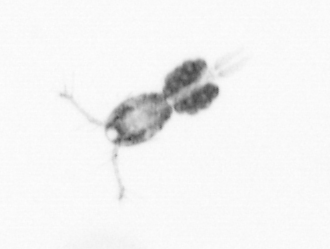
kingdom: Animalia
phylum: Arthropoda
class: Copepoda
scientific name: Copepoda
